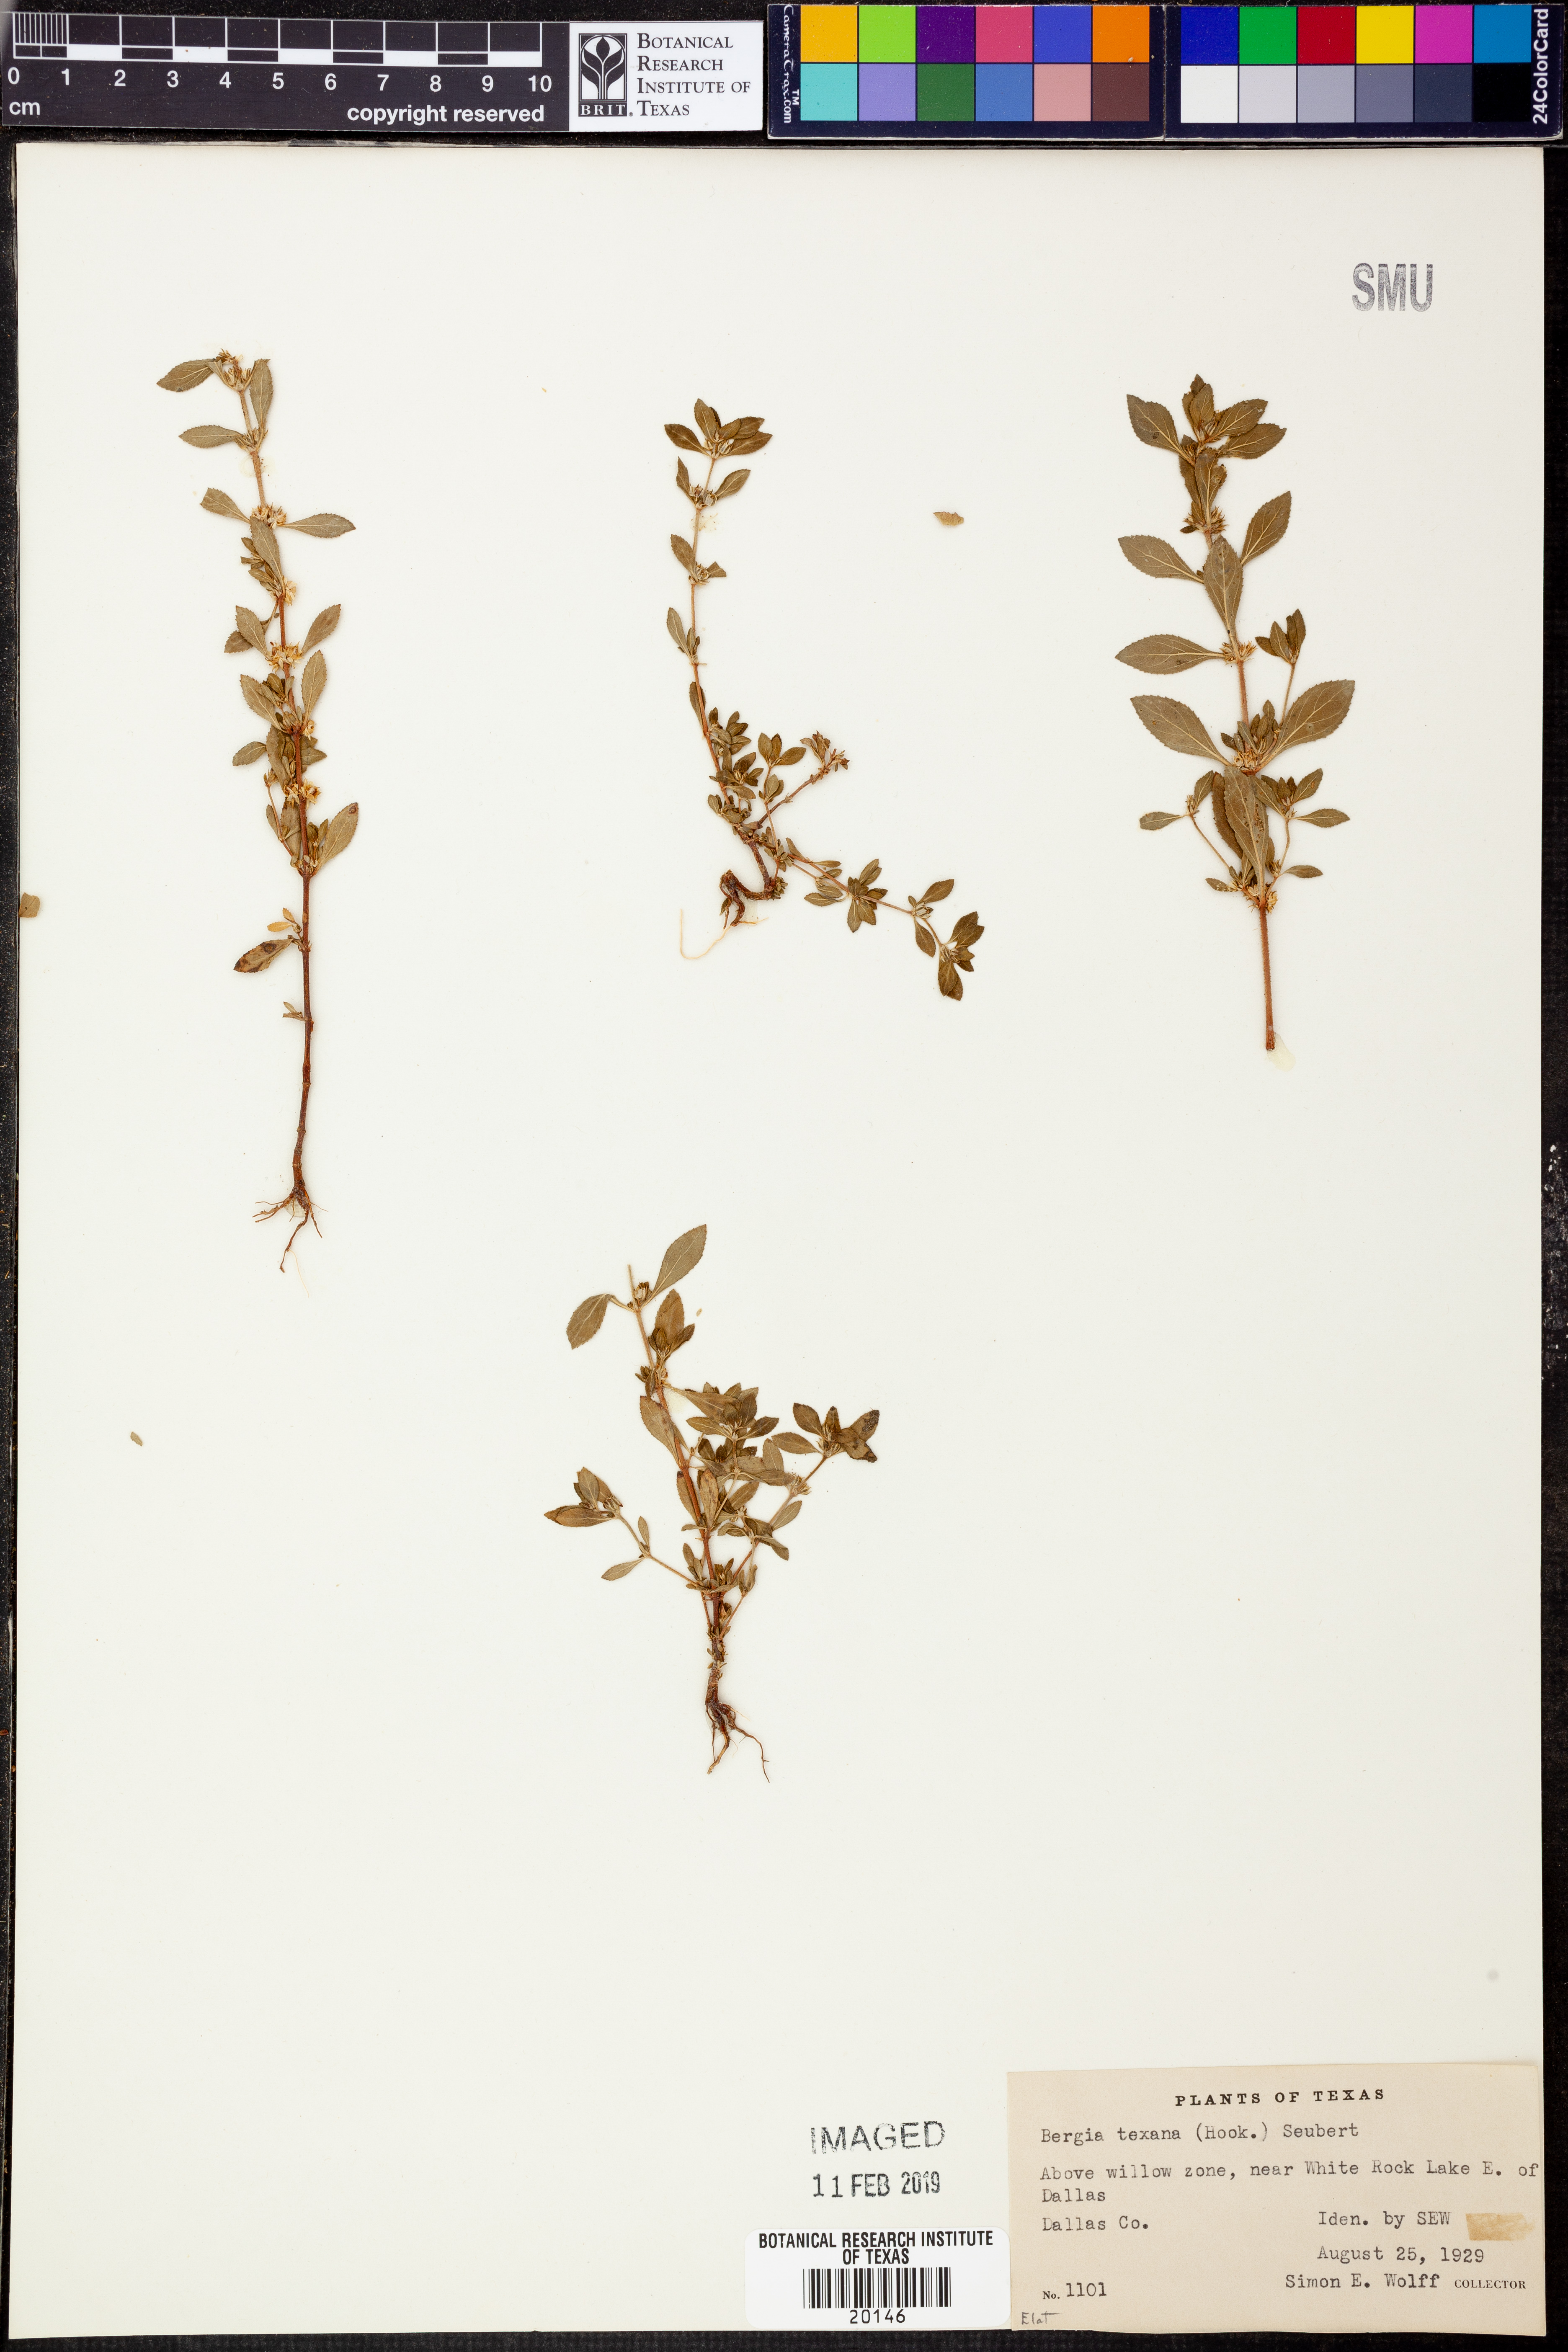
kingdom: Plantae
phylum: Tracheophyta
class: Magnoliopsida
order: Malpighiales
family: Elatinaceae
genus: Bergia
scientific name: Bergia texana
